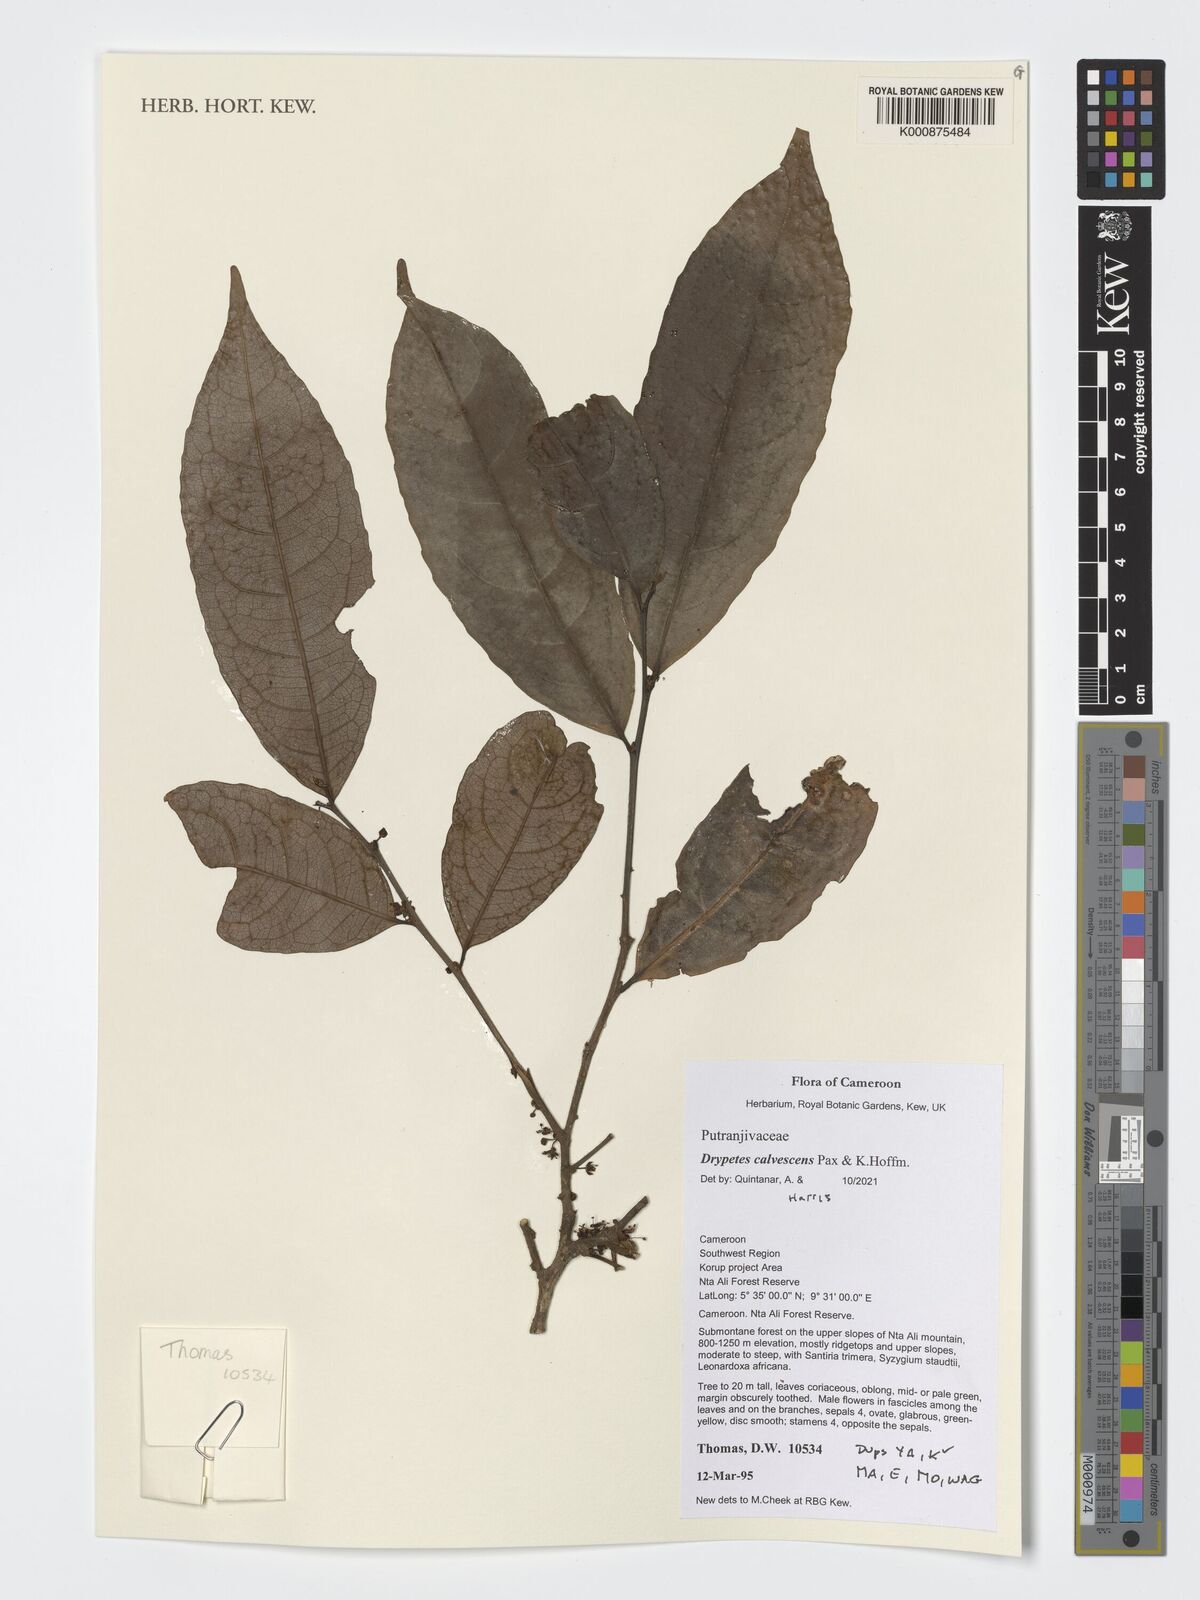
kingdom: Plantae
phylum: Tracheophyta
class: Magnoliopsida
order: Malpighiales
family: Putranjivaceae
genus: Drypetes
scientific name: Drypetes calvescens
